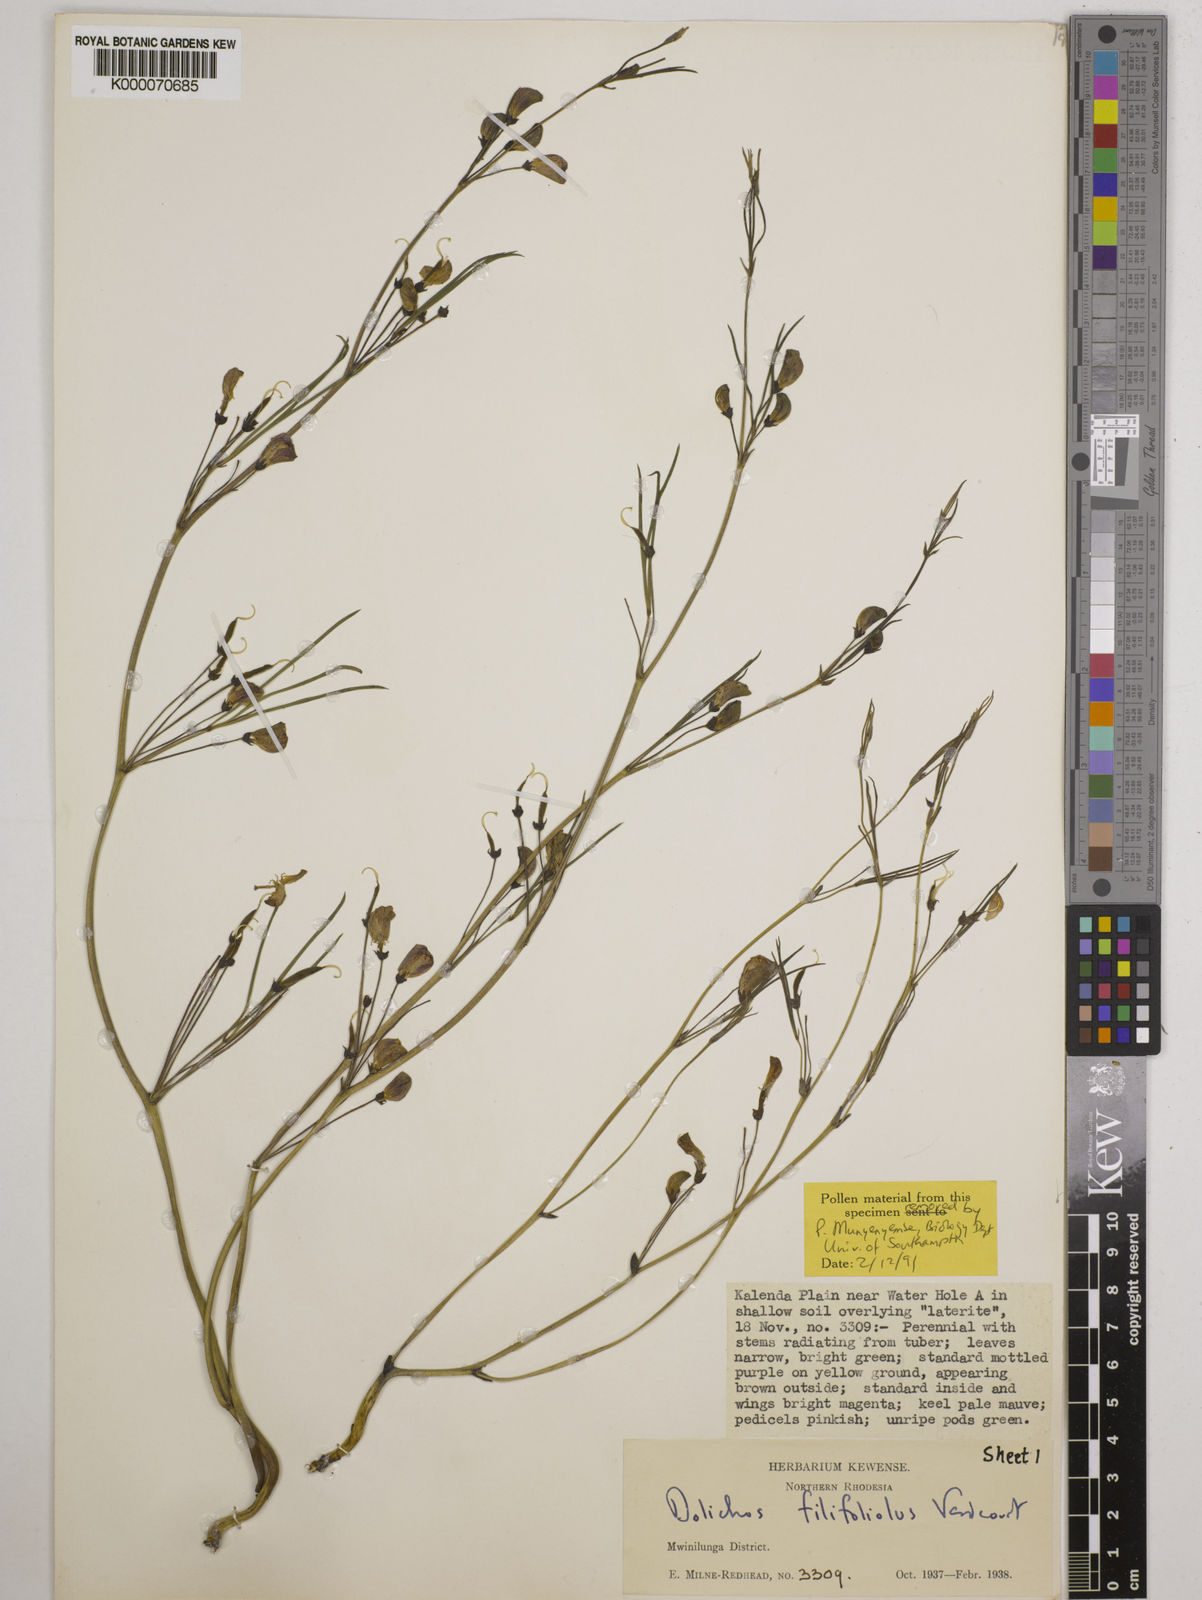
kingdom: Plantae
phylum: Tracheophyta
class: Magnoliopsida
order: Fabales
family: Fabaceae
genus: Dolichos
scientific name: Dolichos filifoliolus
